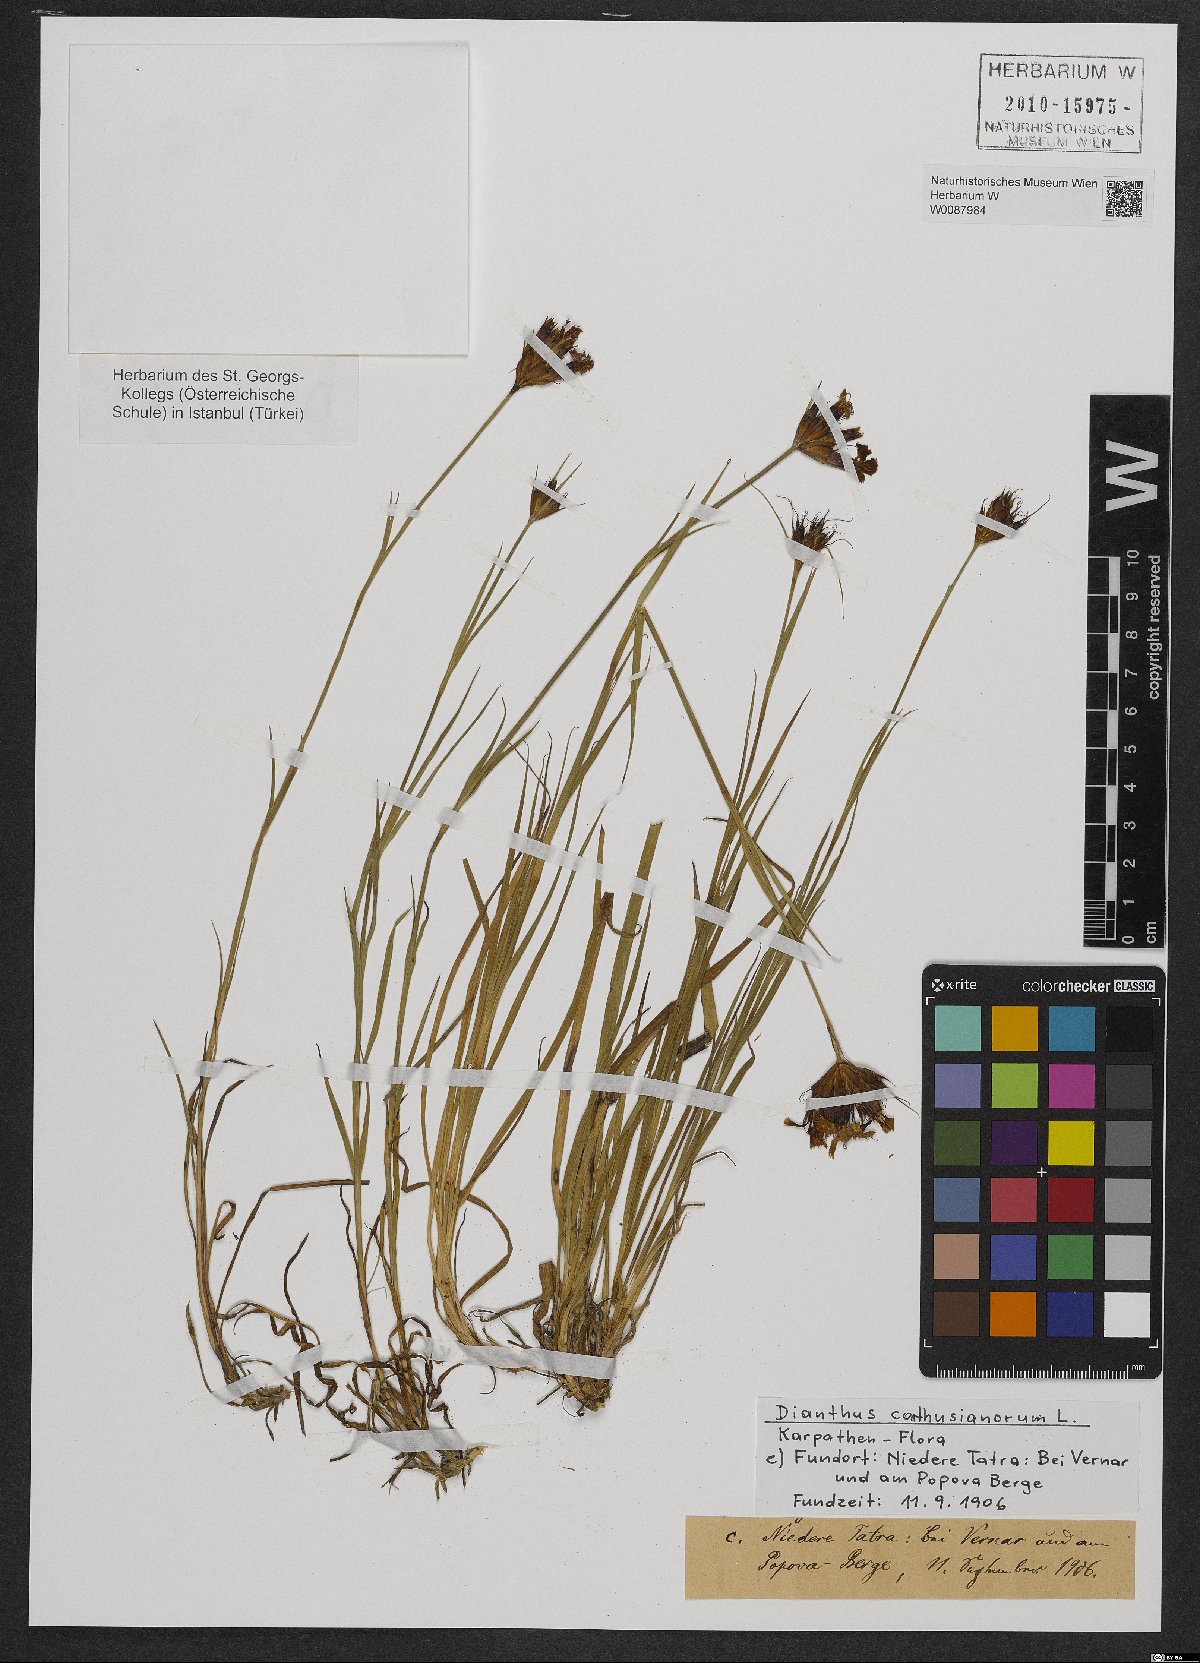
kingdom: Plantae
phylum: Tracheophyta
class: Magnoliopsida
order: Caryophyllales
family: Caryophyllaceae
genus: Dianthus
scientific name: Dianthus carthusianorum
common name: Carthusian pink
